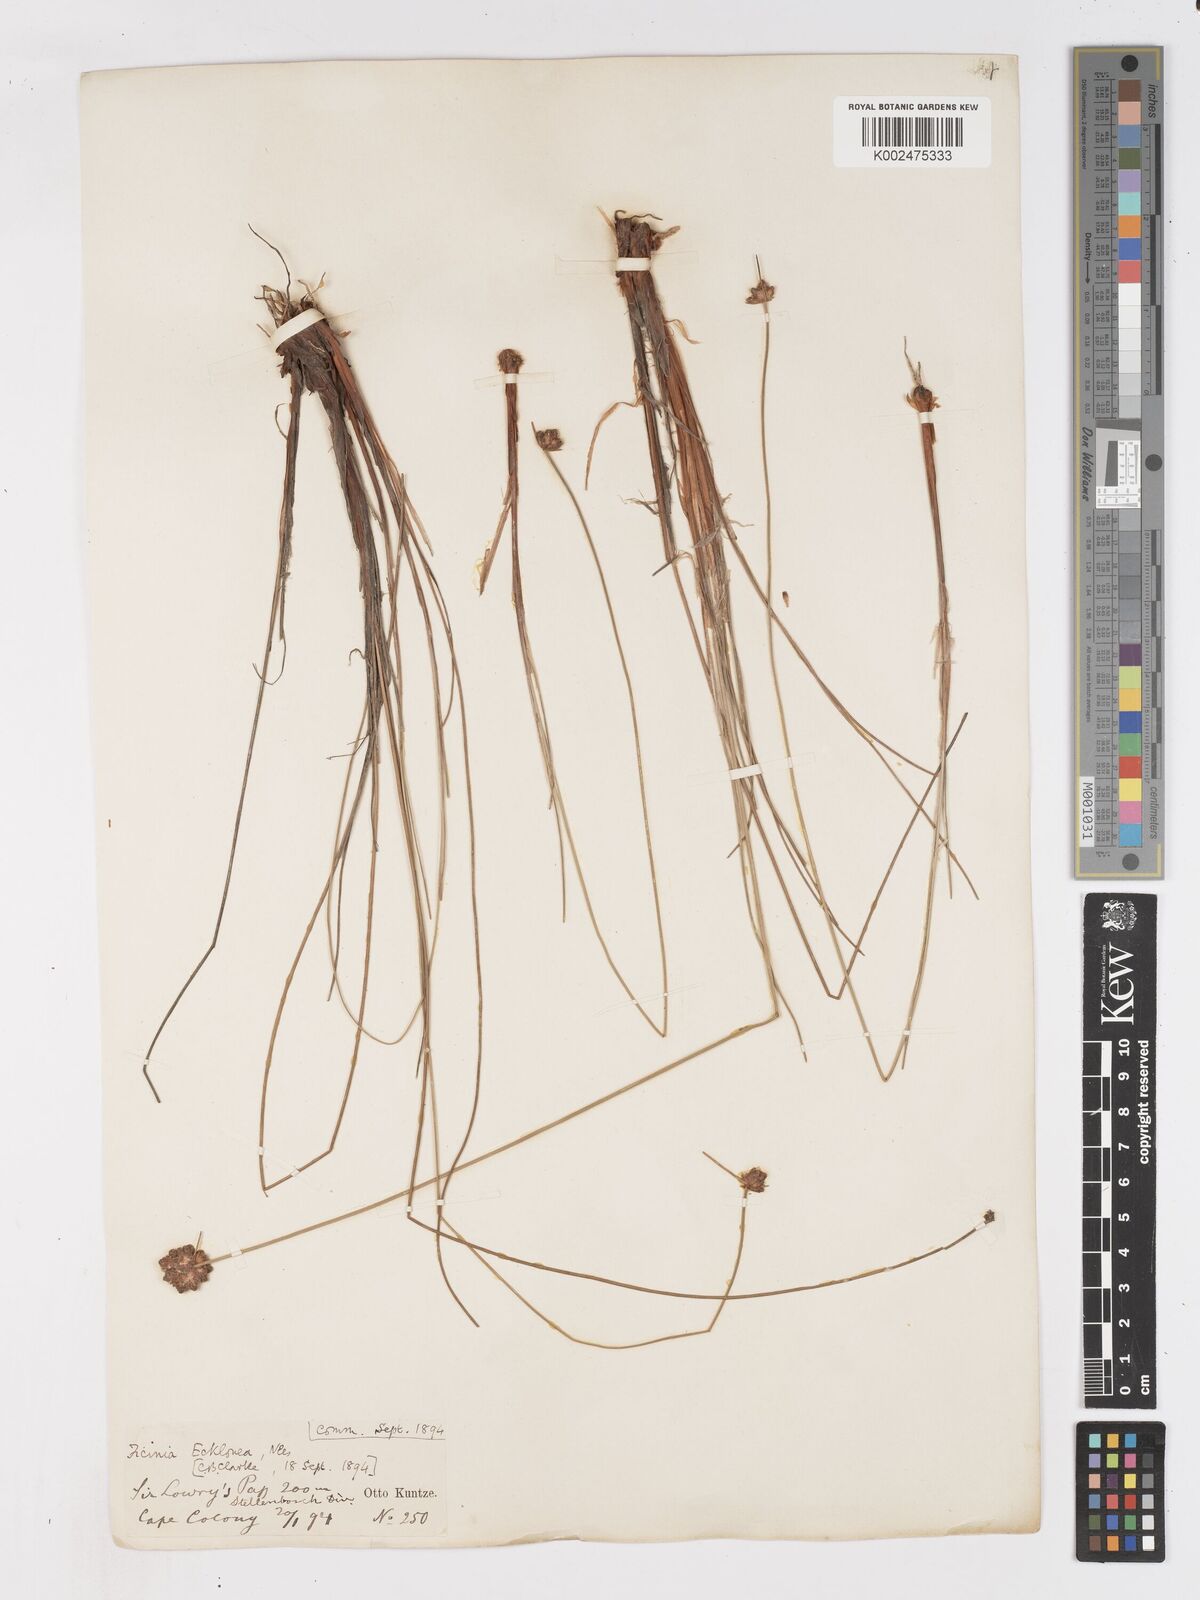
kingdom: Plantae
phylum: Tracheophyta
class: Liliopsida
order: Poales
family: Cyperaceae
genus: Ficinia
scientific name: Ficinia ecklonea
